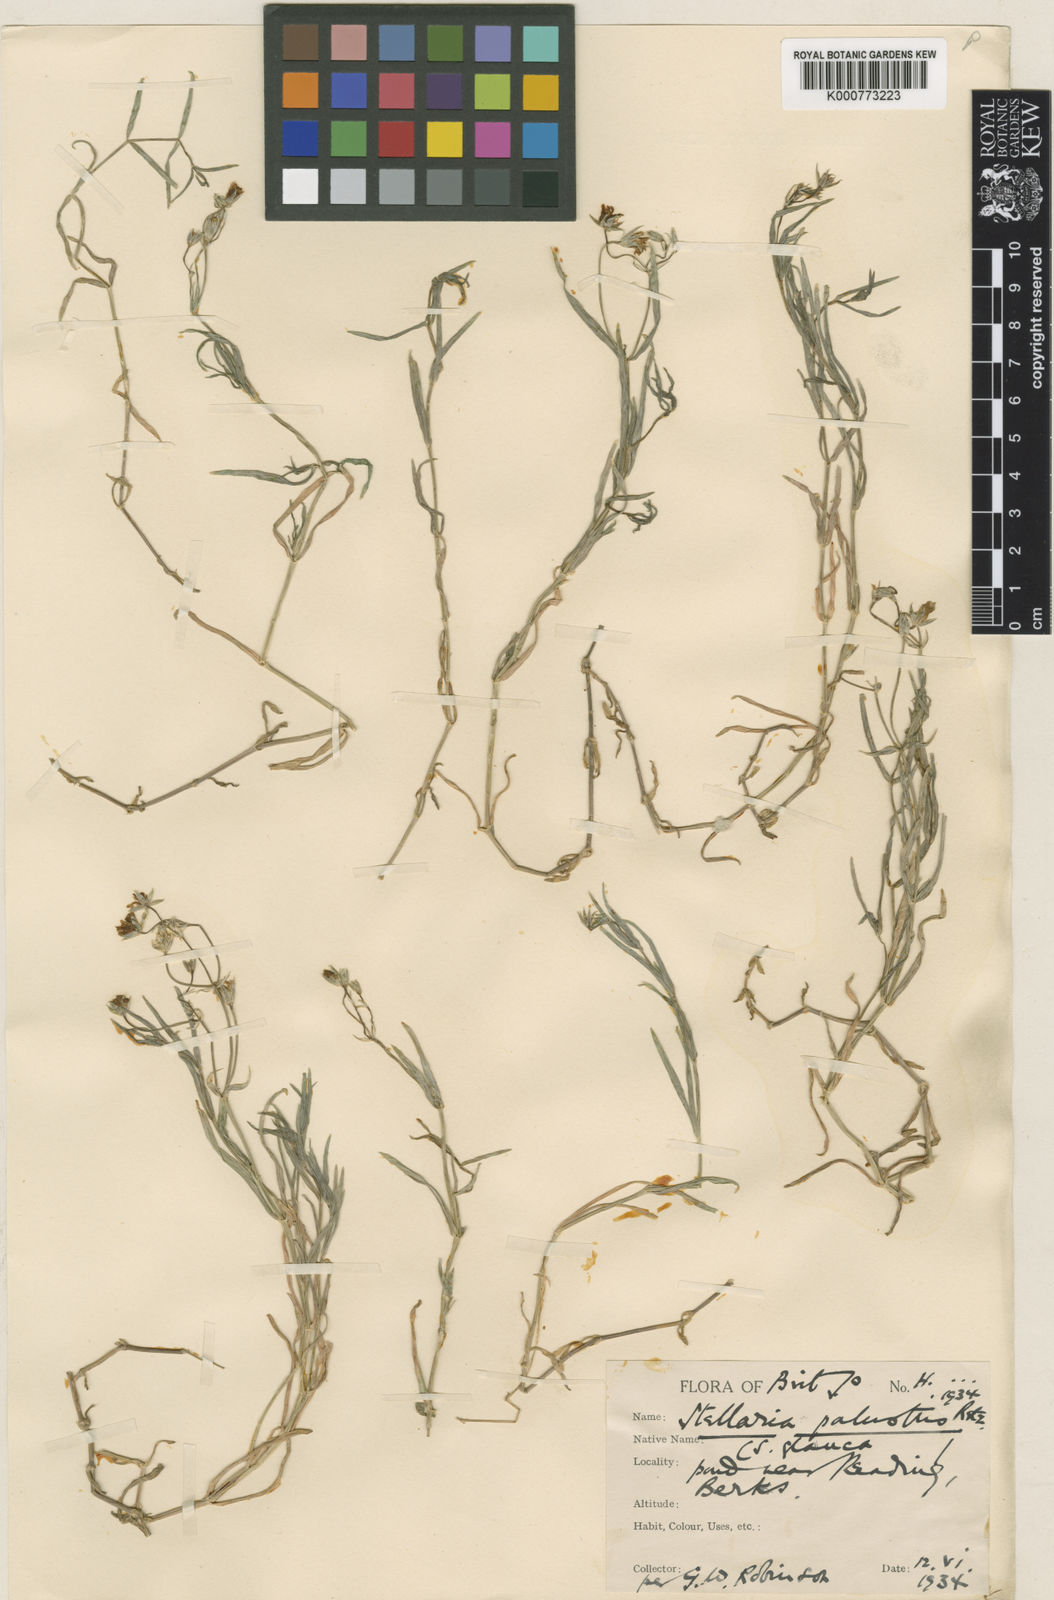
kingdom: Plantae
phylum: Tracheophyta
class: Magnoliopsida
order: Caryophyllales
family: Caryophyllaceae
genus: Stellaria
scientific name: Stellaria
